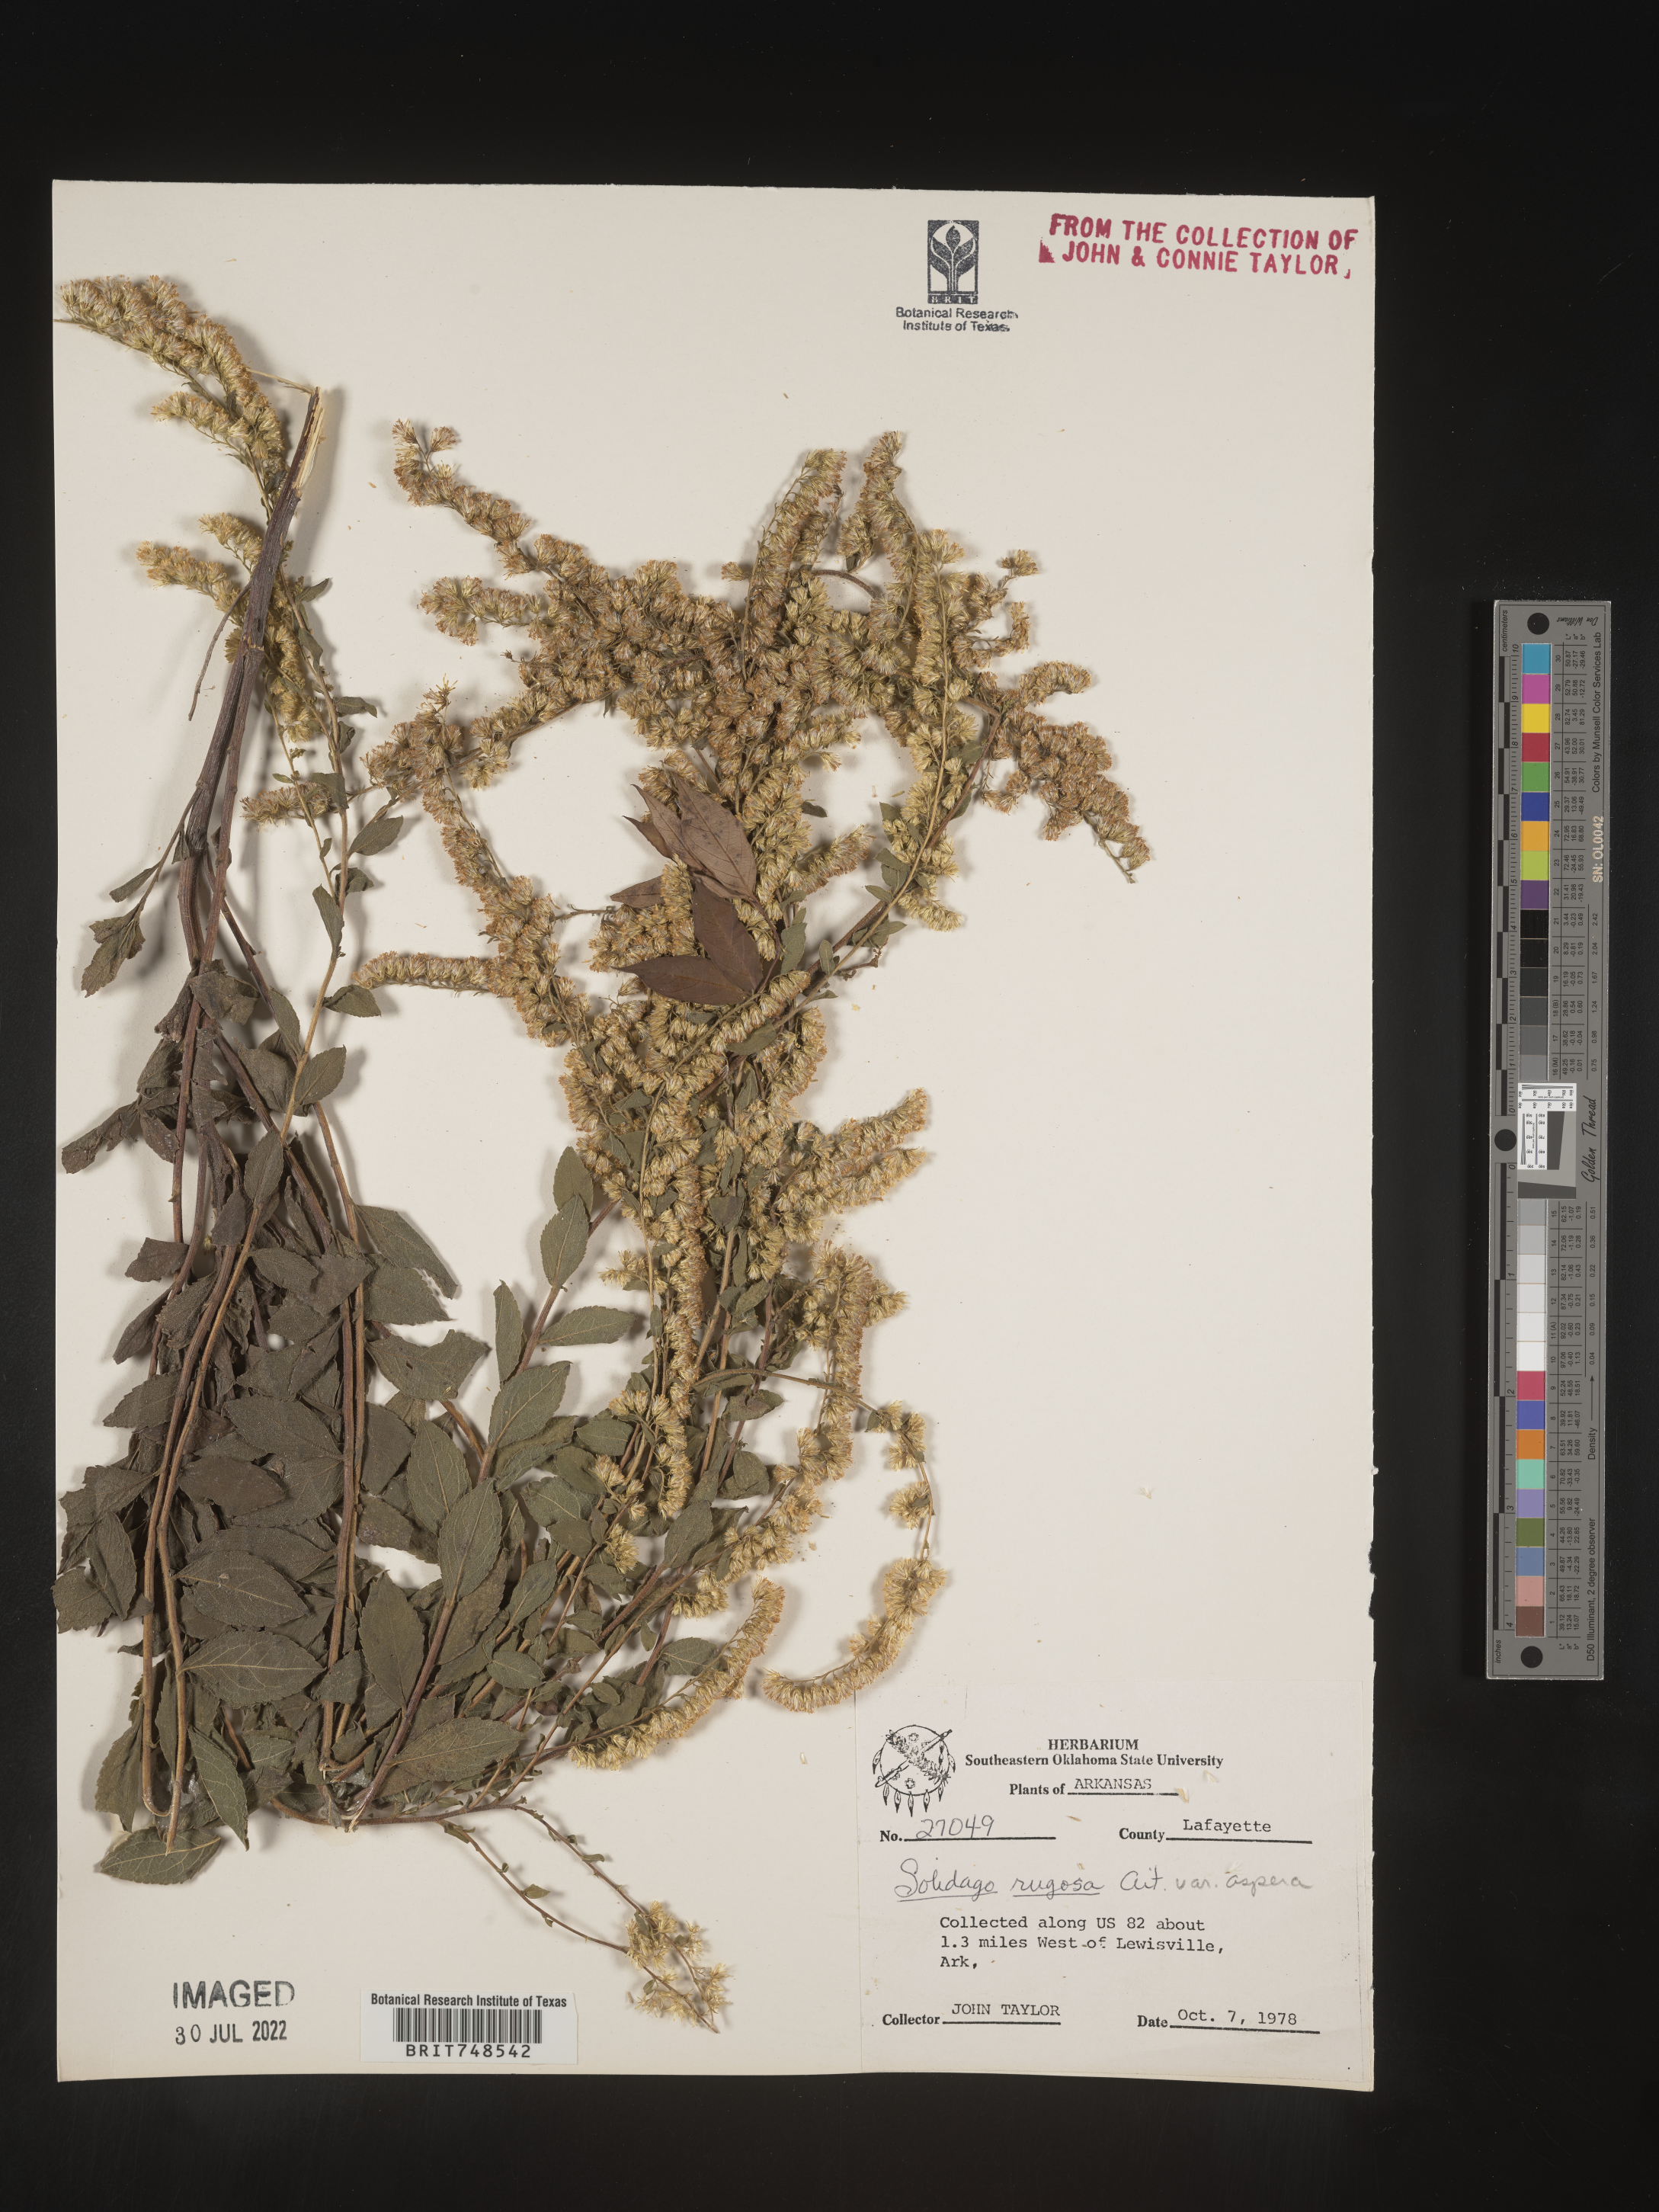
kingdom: Plantae
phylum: Tracheophyta
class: Magnoliopsida
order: Asterales
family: Asteraceae
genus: Solidago
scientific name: Solidago rugosa
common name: Rough-stemmed goldenrod
